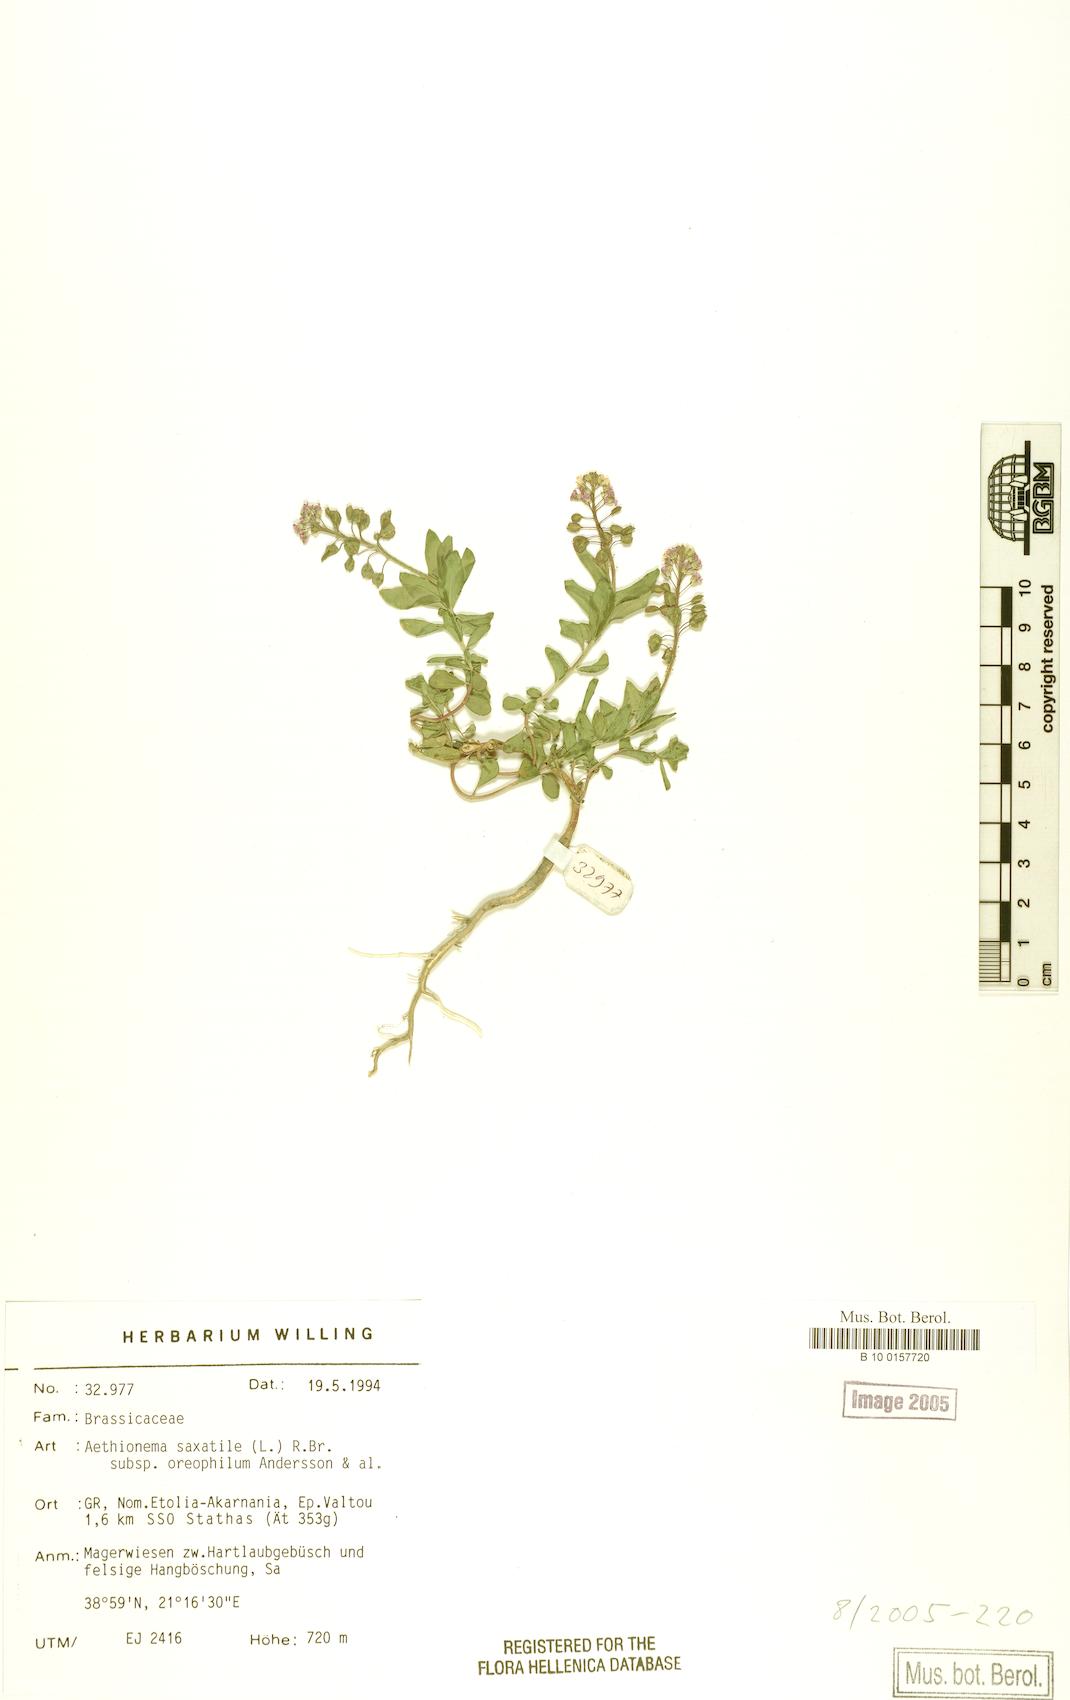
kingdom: Plantae
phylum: Tracheophyta
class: Magnoliopsida
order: Brassicales
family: Brassicaceae
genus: Aethionema
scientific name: Aethionema saxatile
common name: Burnt candytuft
